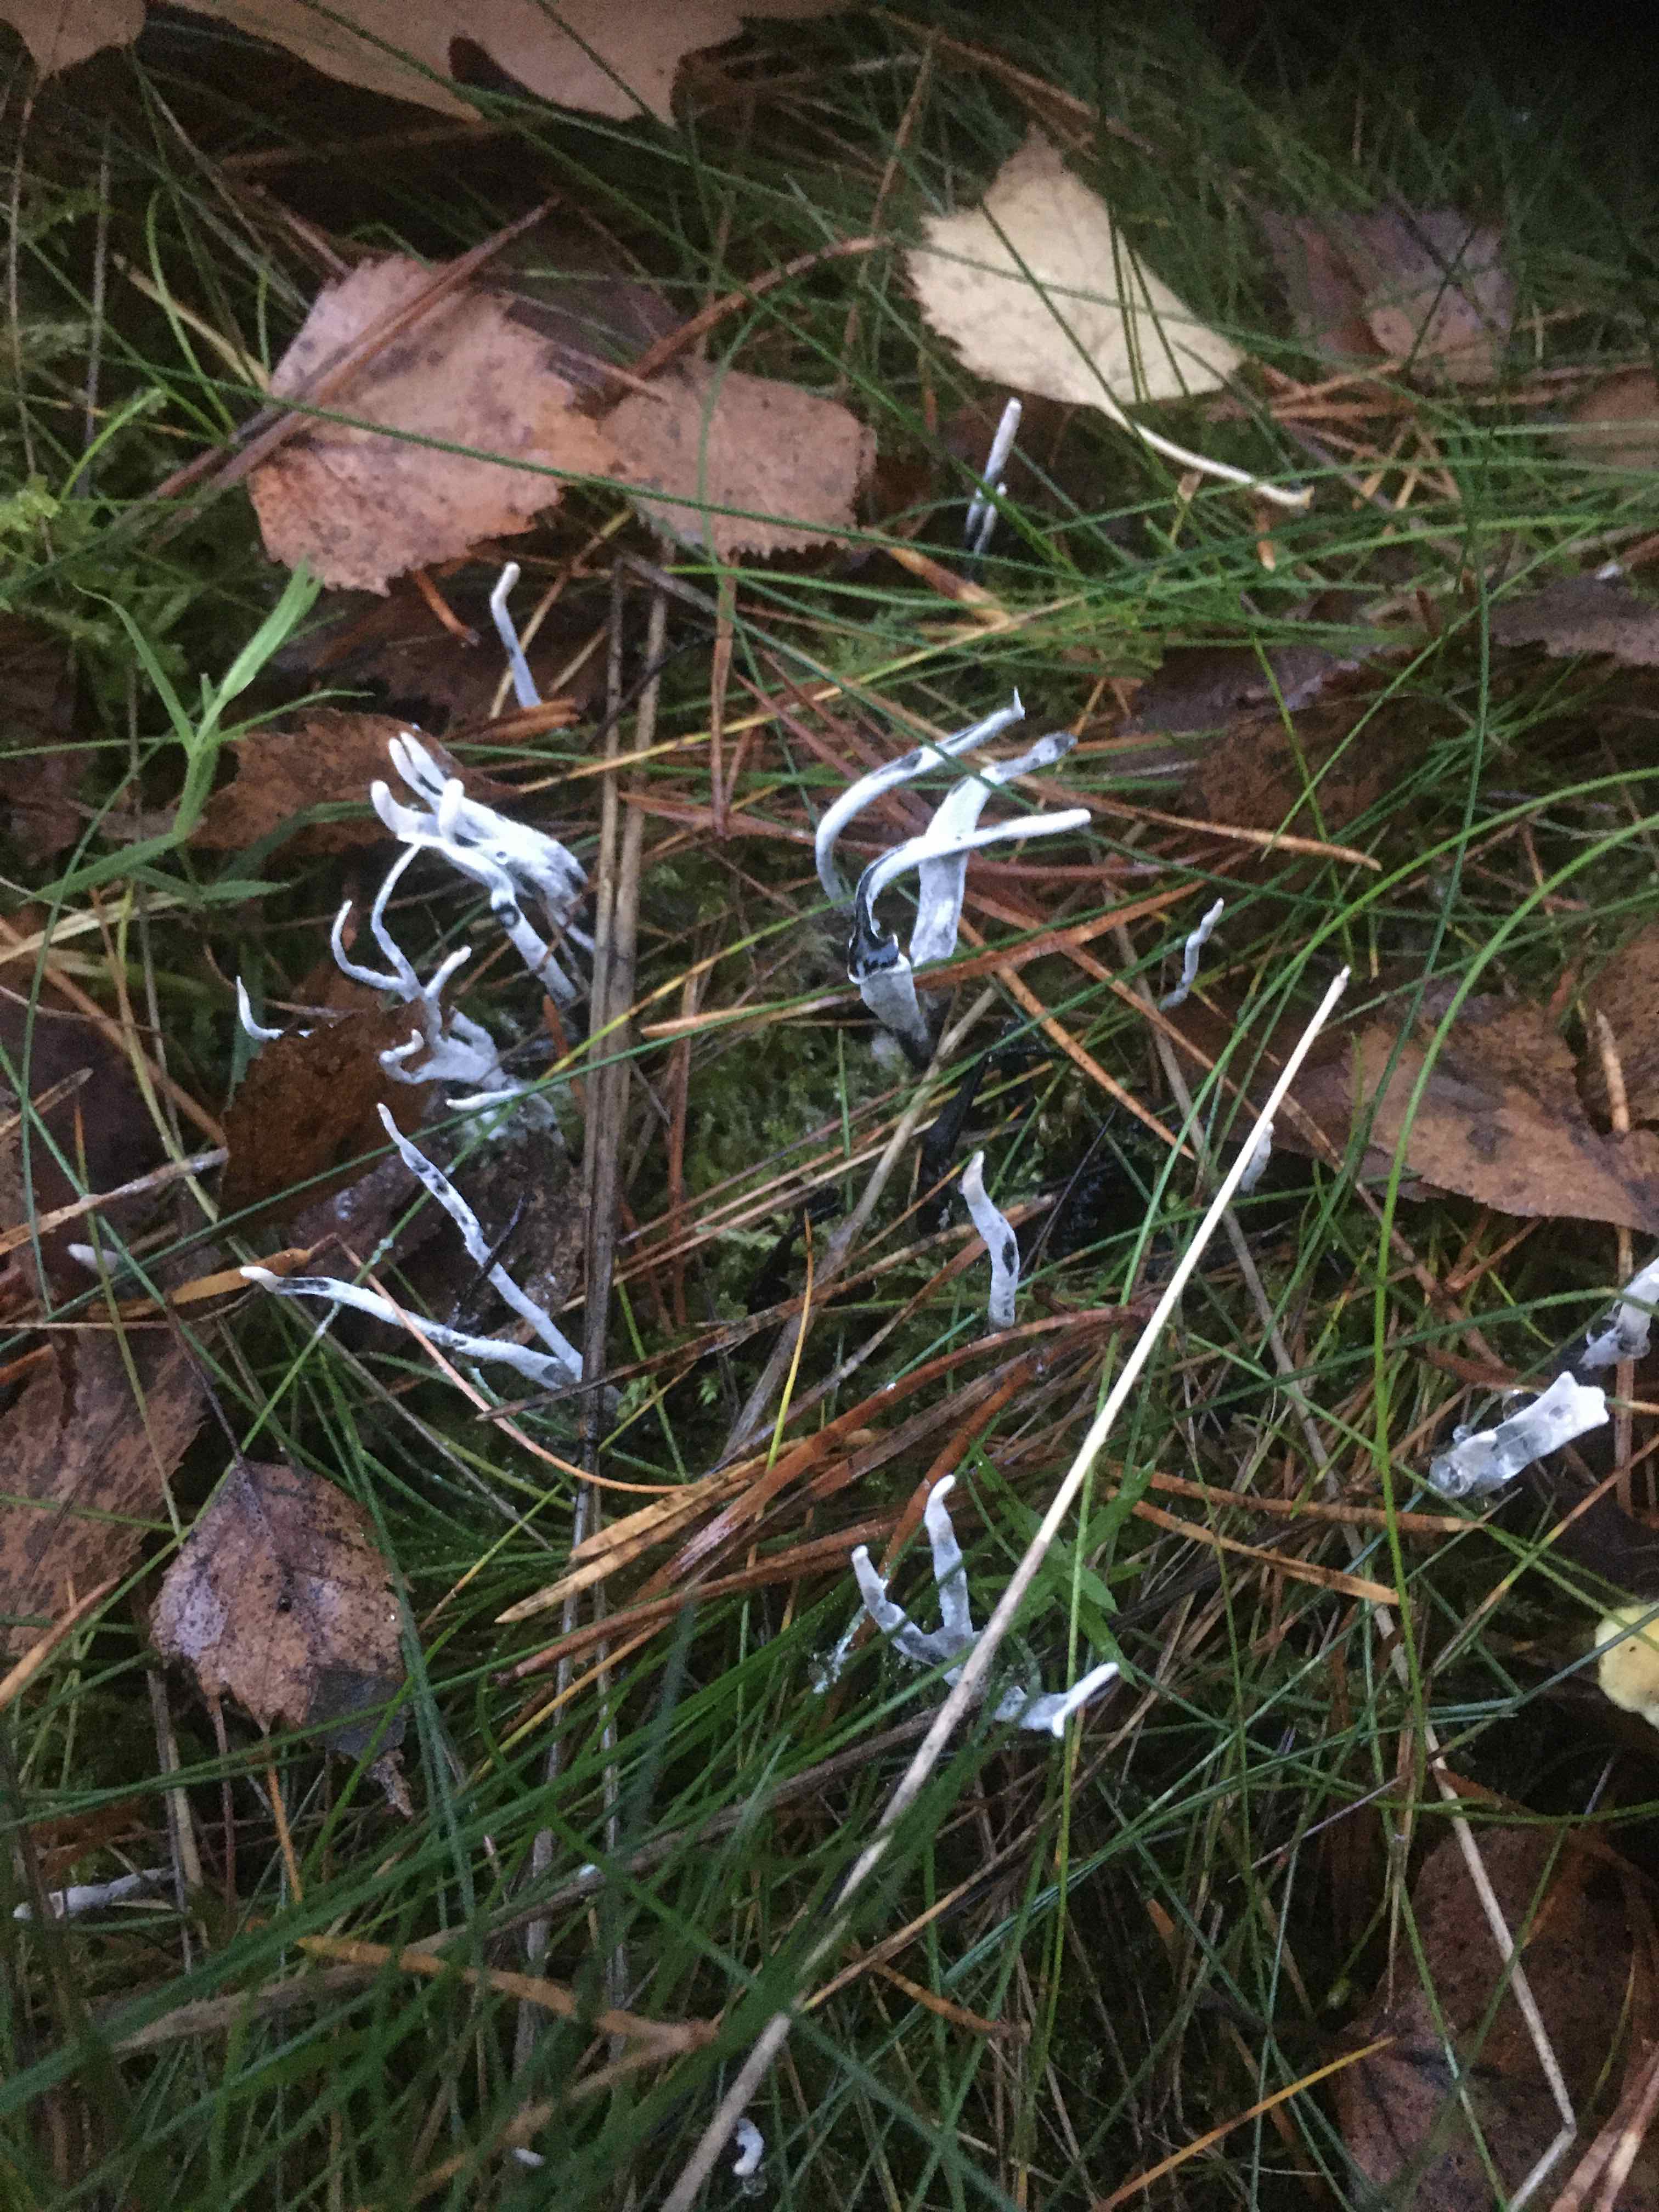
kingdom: Fungi
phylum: Ascomycota
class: Sordariomycetes
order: Xylariales
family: Xylariaceae
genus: Xylaria
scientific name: Xylaria hypoxylon
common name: grenet stødsvamp
